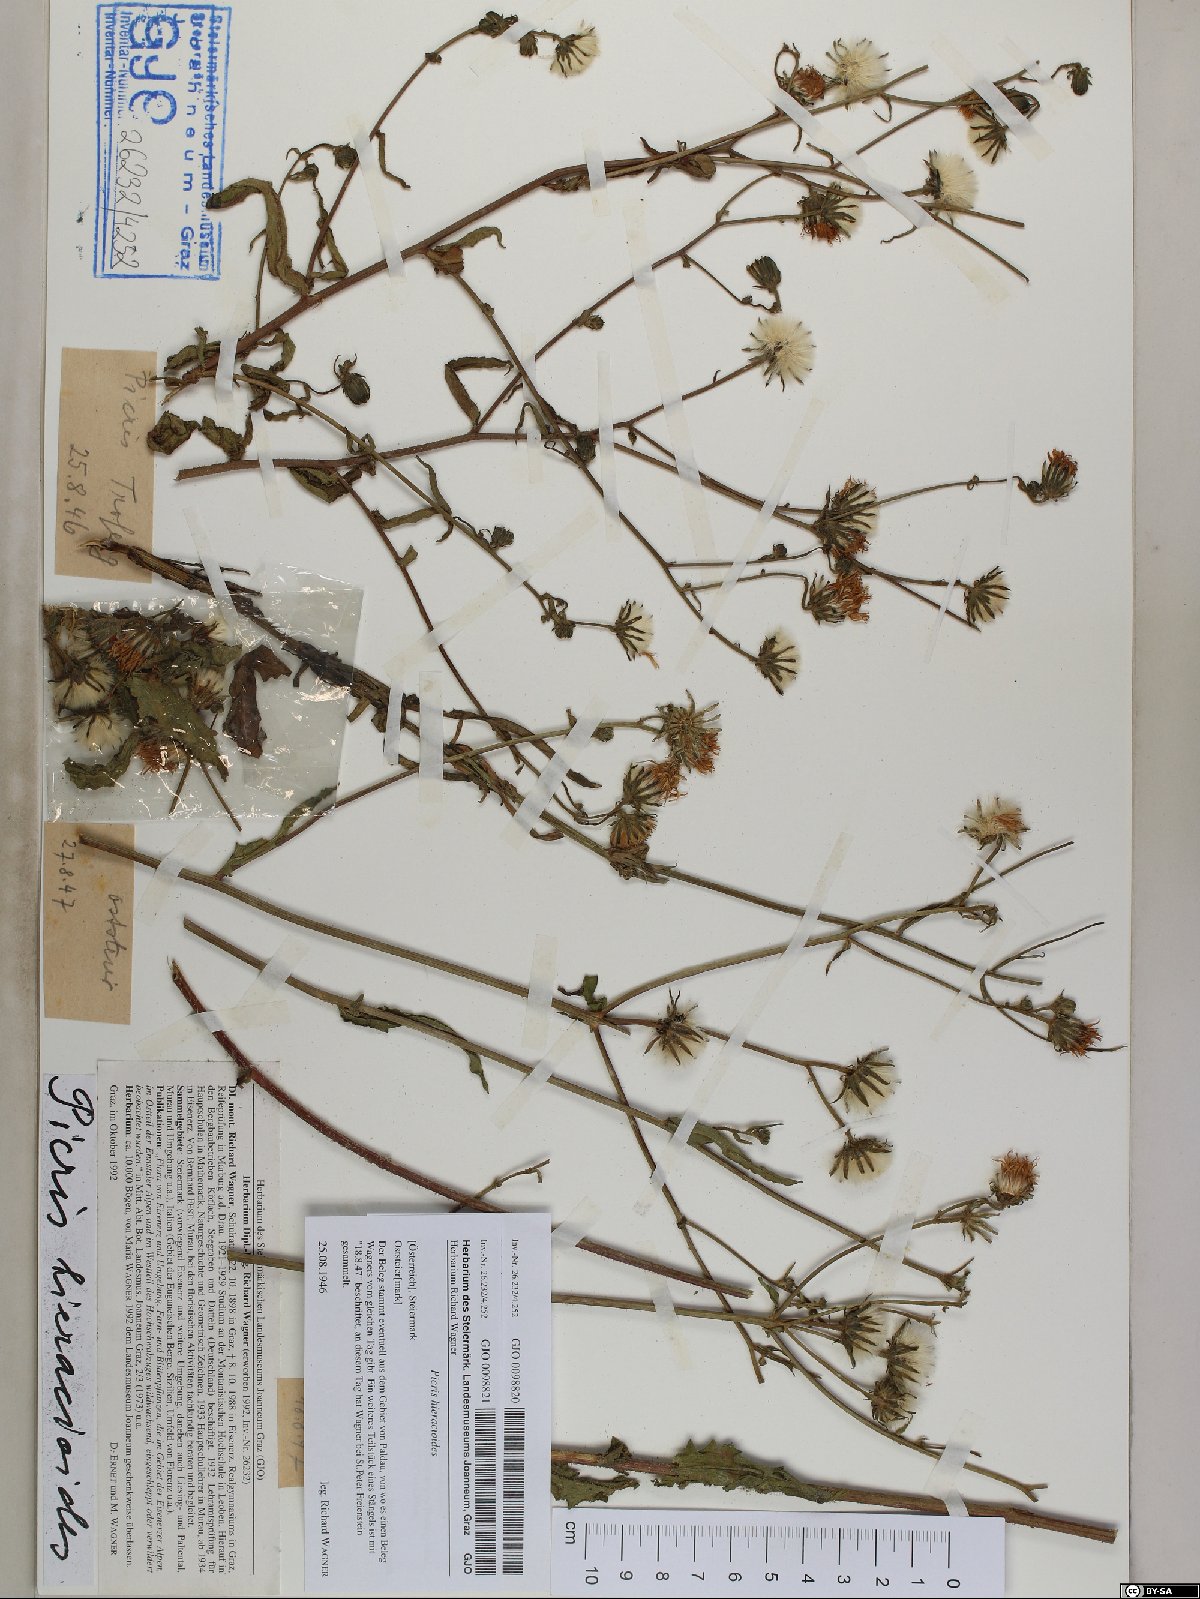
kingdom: Plantae
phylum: Tracheophyta
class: Magnoliopsida
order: Asterales
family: Asteraceae
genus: Picris
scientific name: Picris hieracioides
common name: Hawkweed oxtongue
